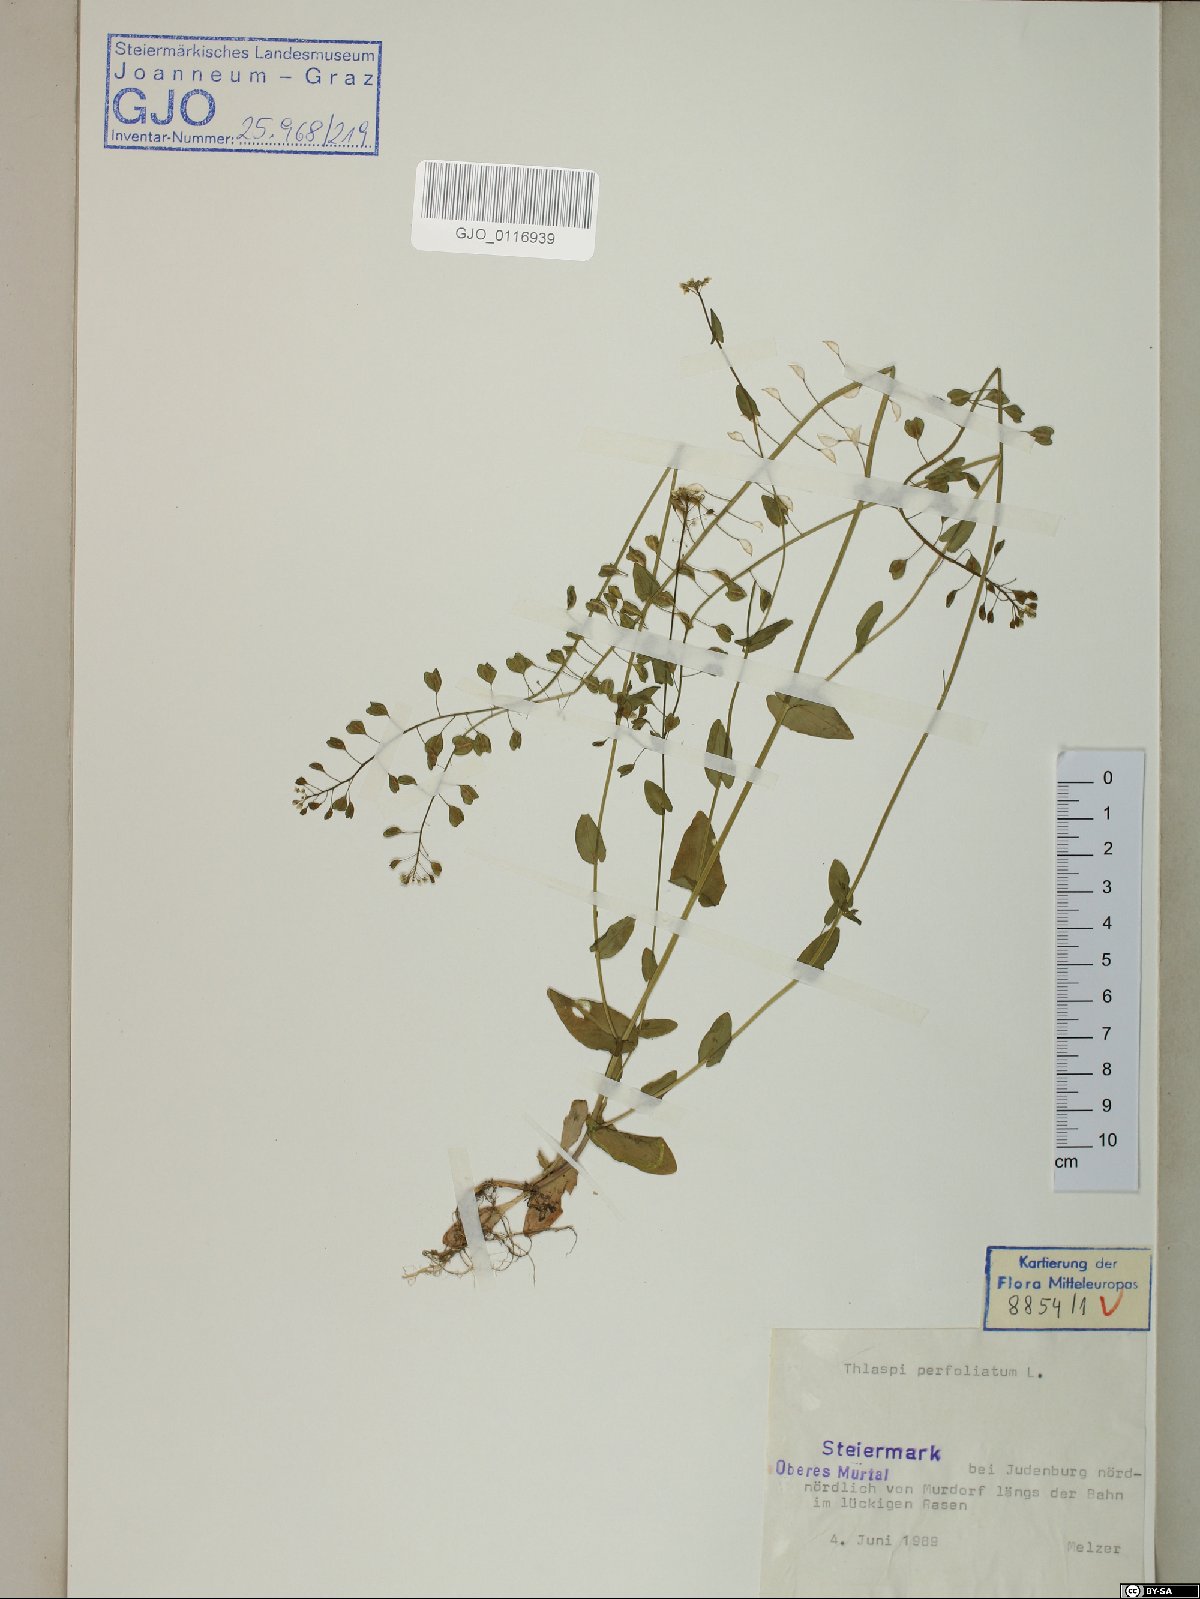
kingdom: Plantae
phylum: Tracheophyta
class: Magnoliopsida
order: Brassicales
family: Brassicaceae
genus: Noccaea
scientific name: Noccaea perfoliata
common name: Perfoliate pennycress
